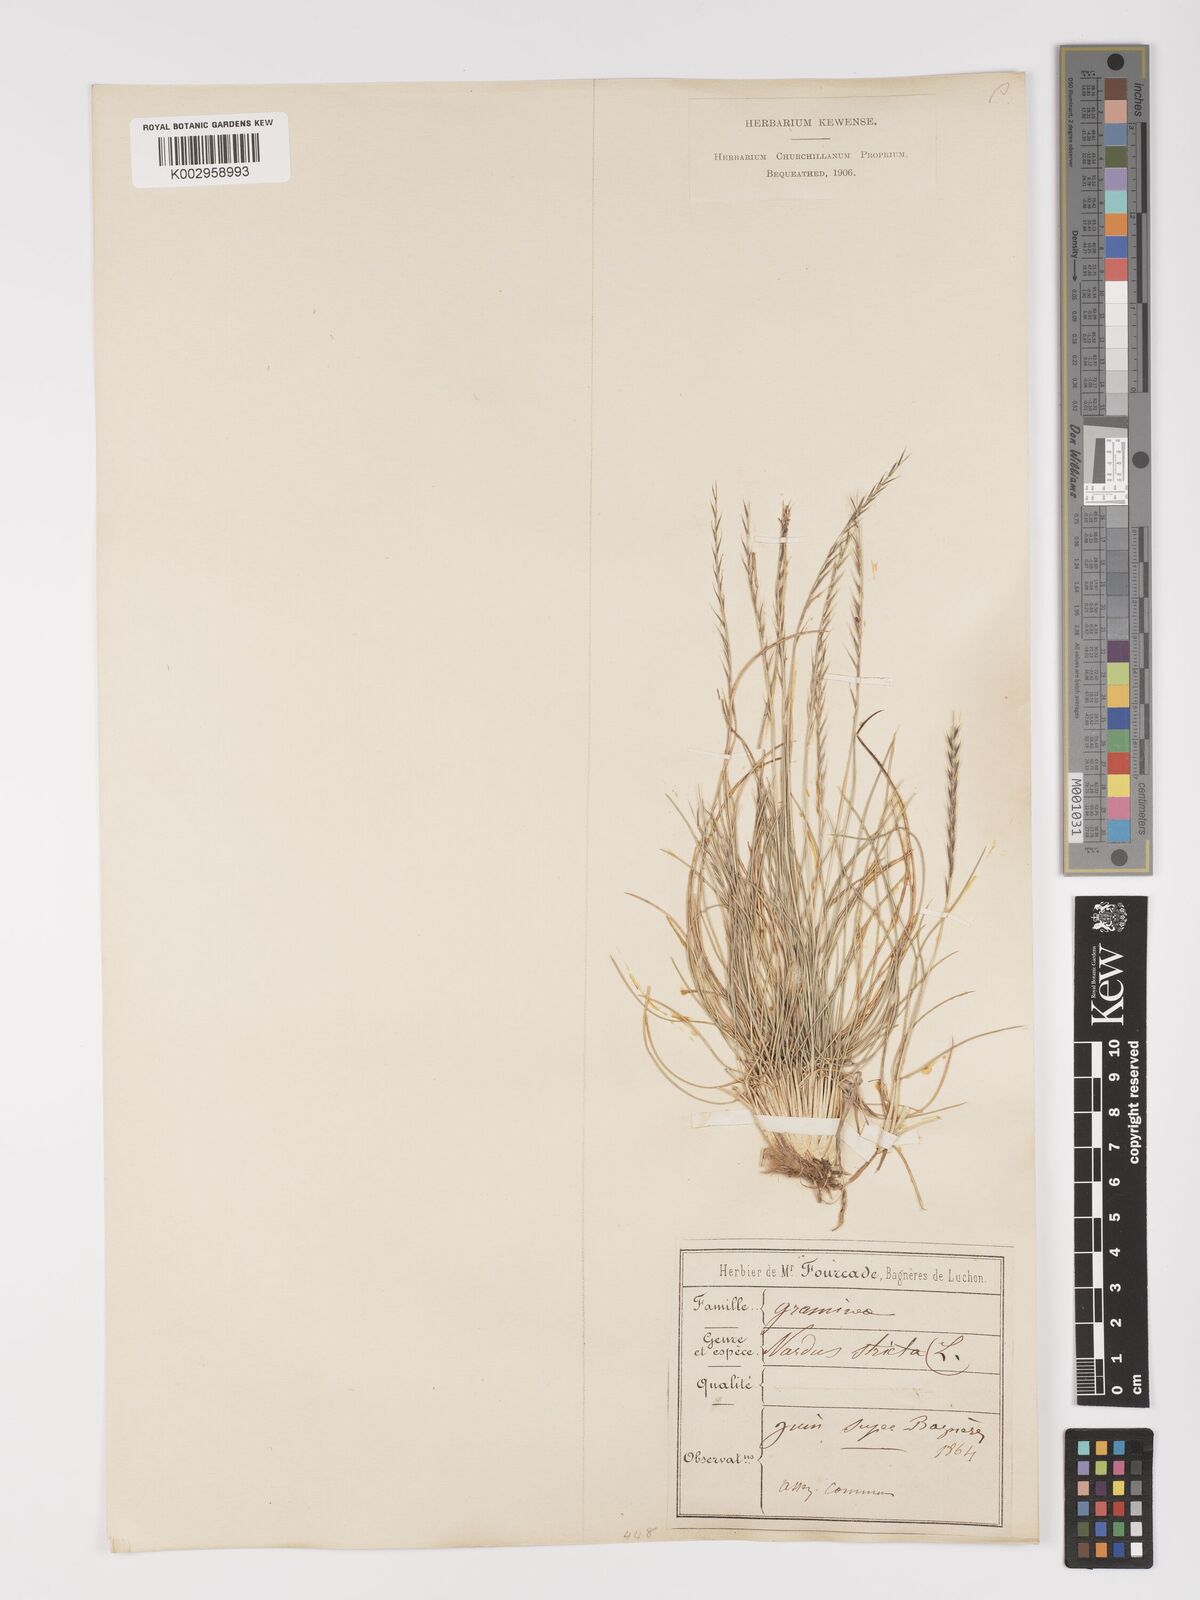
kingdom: Plantae
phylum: Tracheophyta
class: Liliopsida
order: Poales
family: Poaceae
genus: Nardus
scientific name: Nardus stricta
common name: Mat-grass
